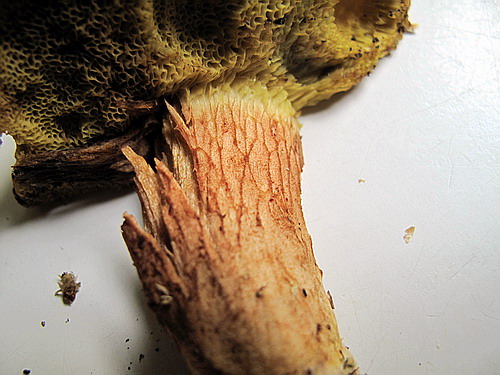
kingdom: Fungi
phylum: Basidiomycota
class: Agaricomycetes
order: Boletales
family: Boletaceae
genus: Xerocomus
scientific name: Xerocomus ferrugineus
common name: vaskeskinds-rørhat
